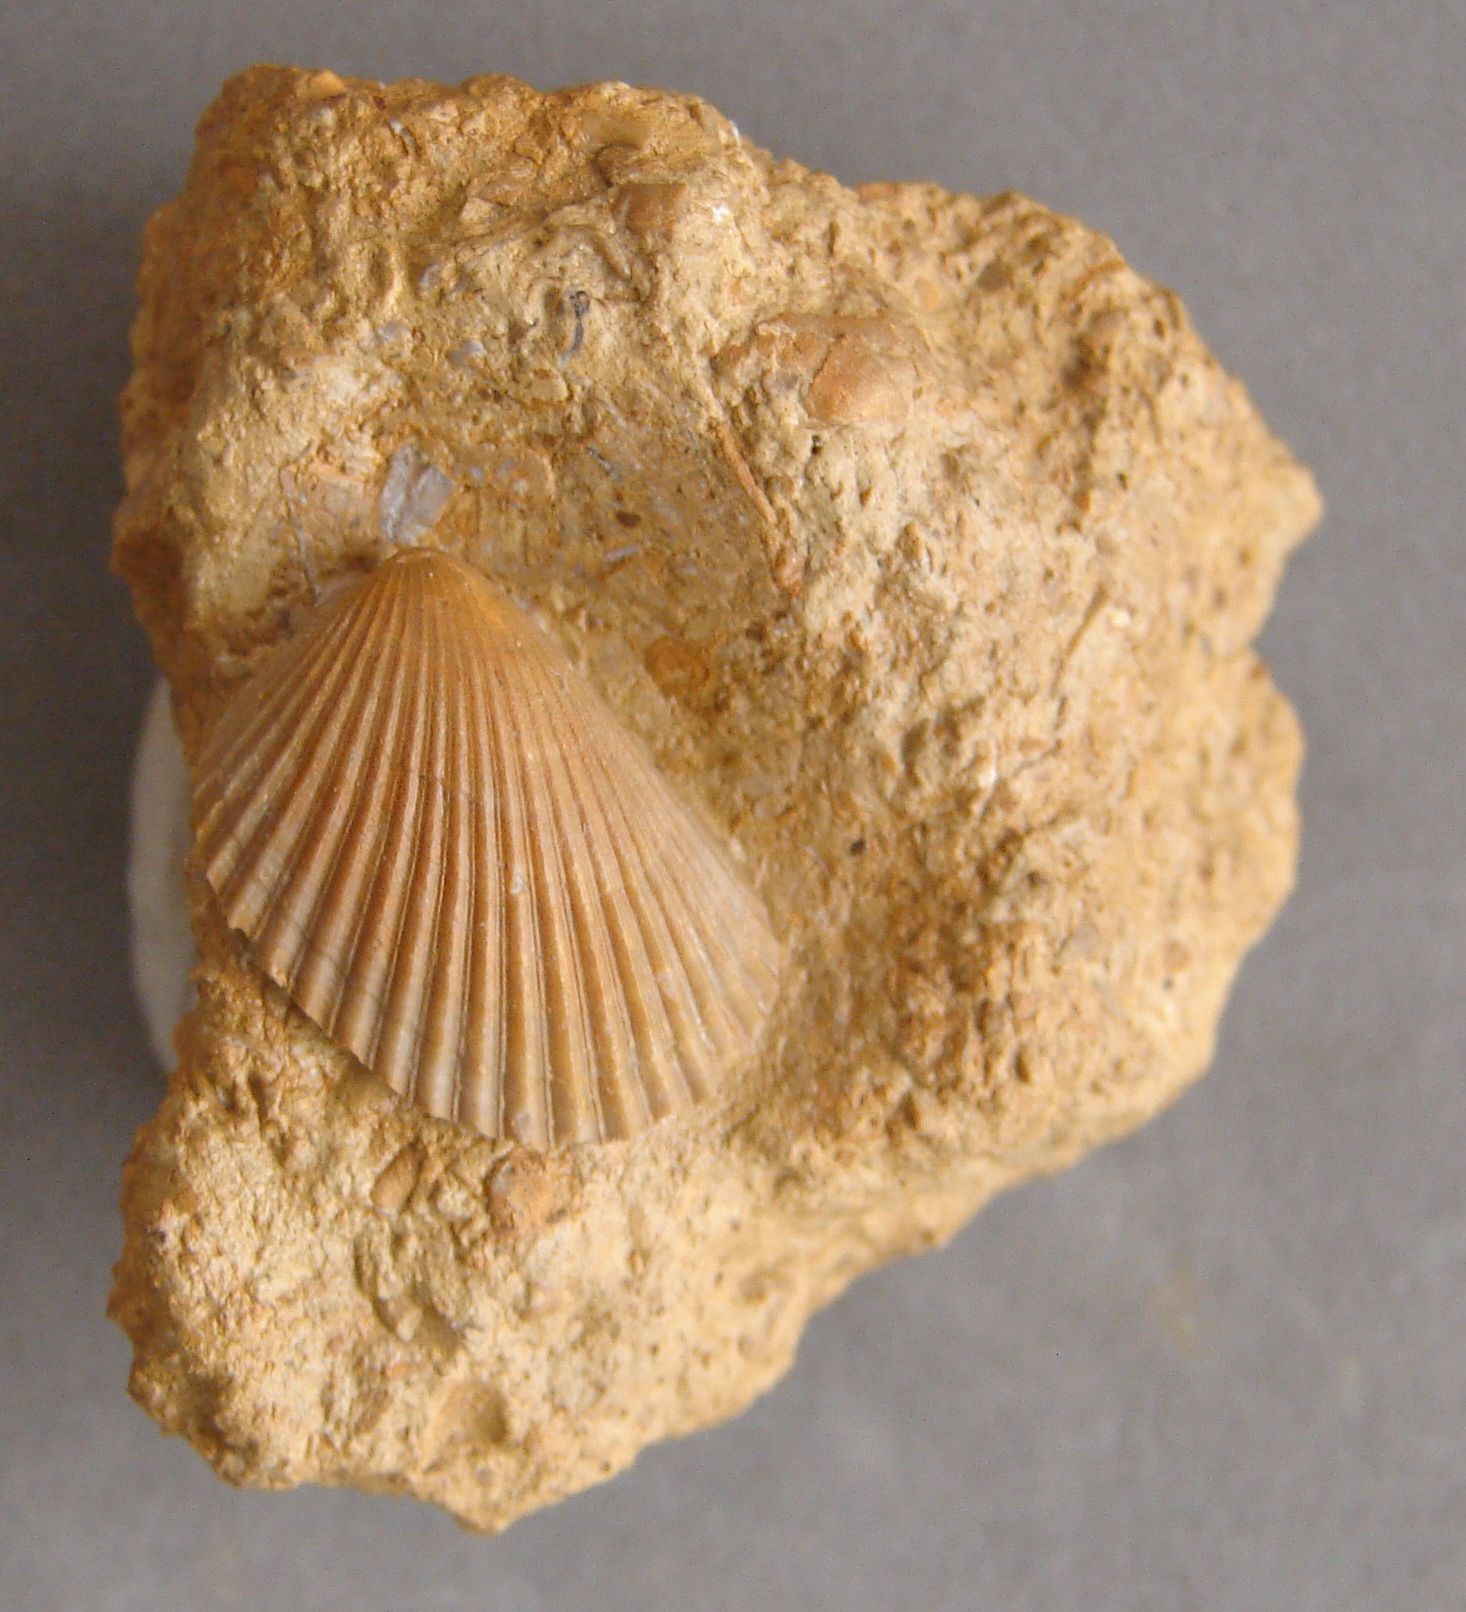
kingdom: Animalia
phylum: Mollusca
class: Bivalvia
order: Limida
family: Limidae
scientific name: Limidae
